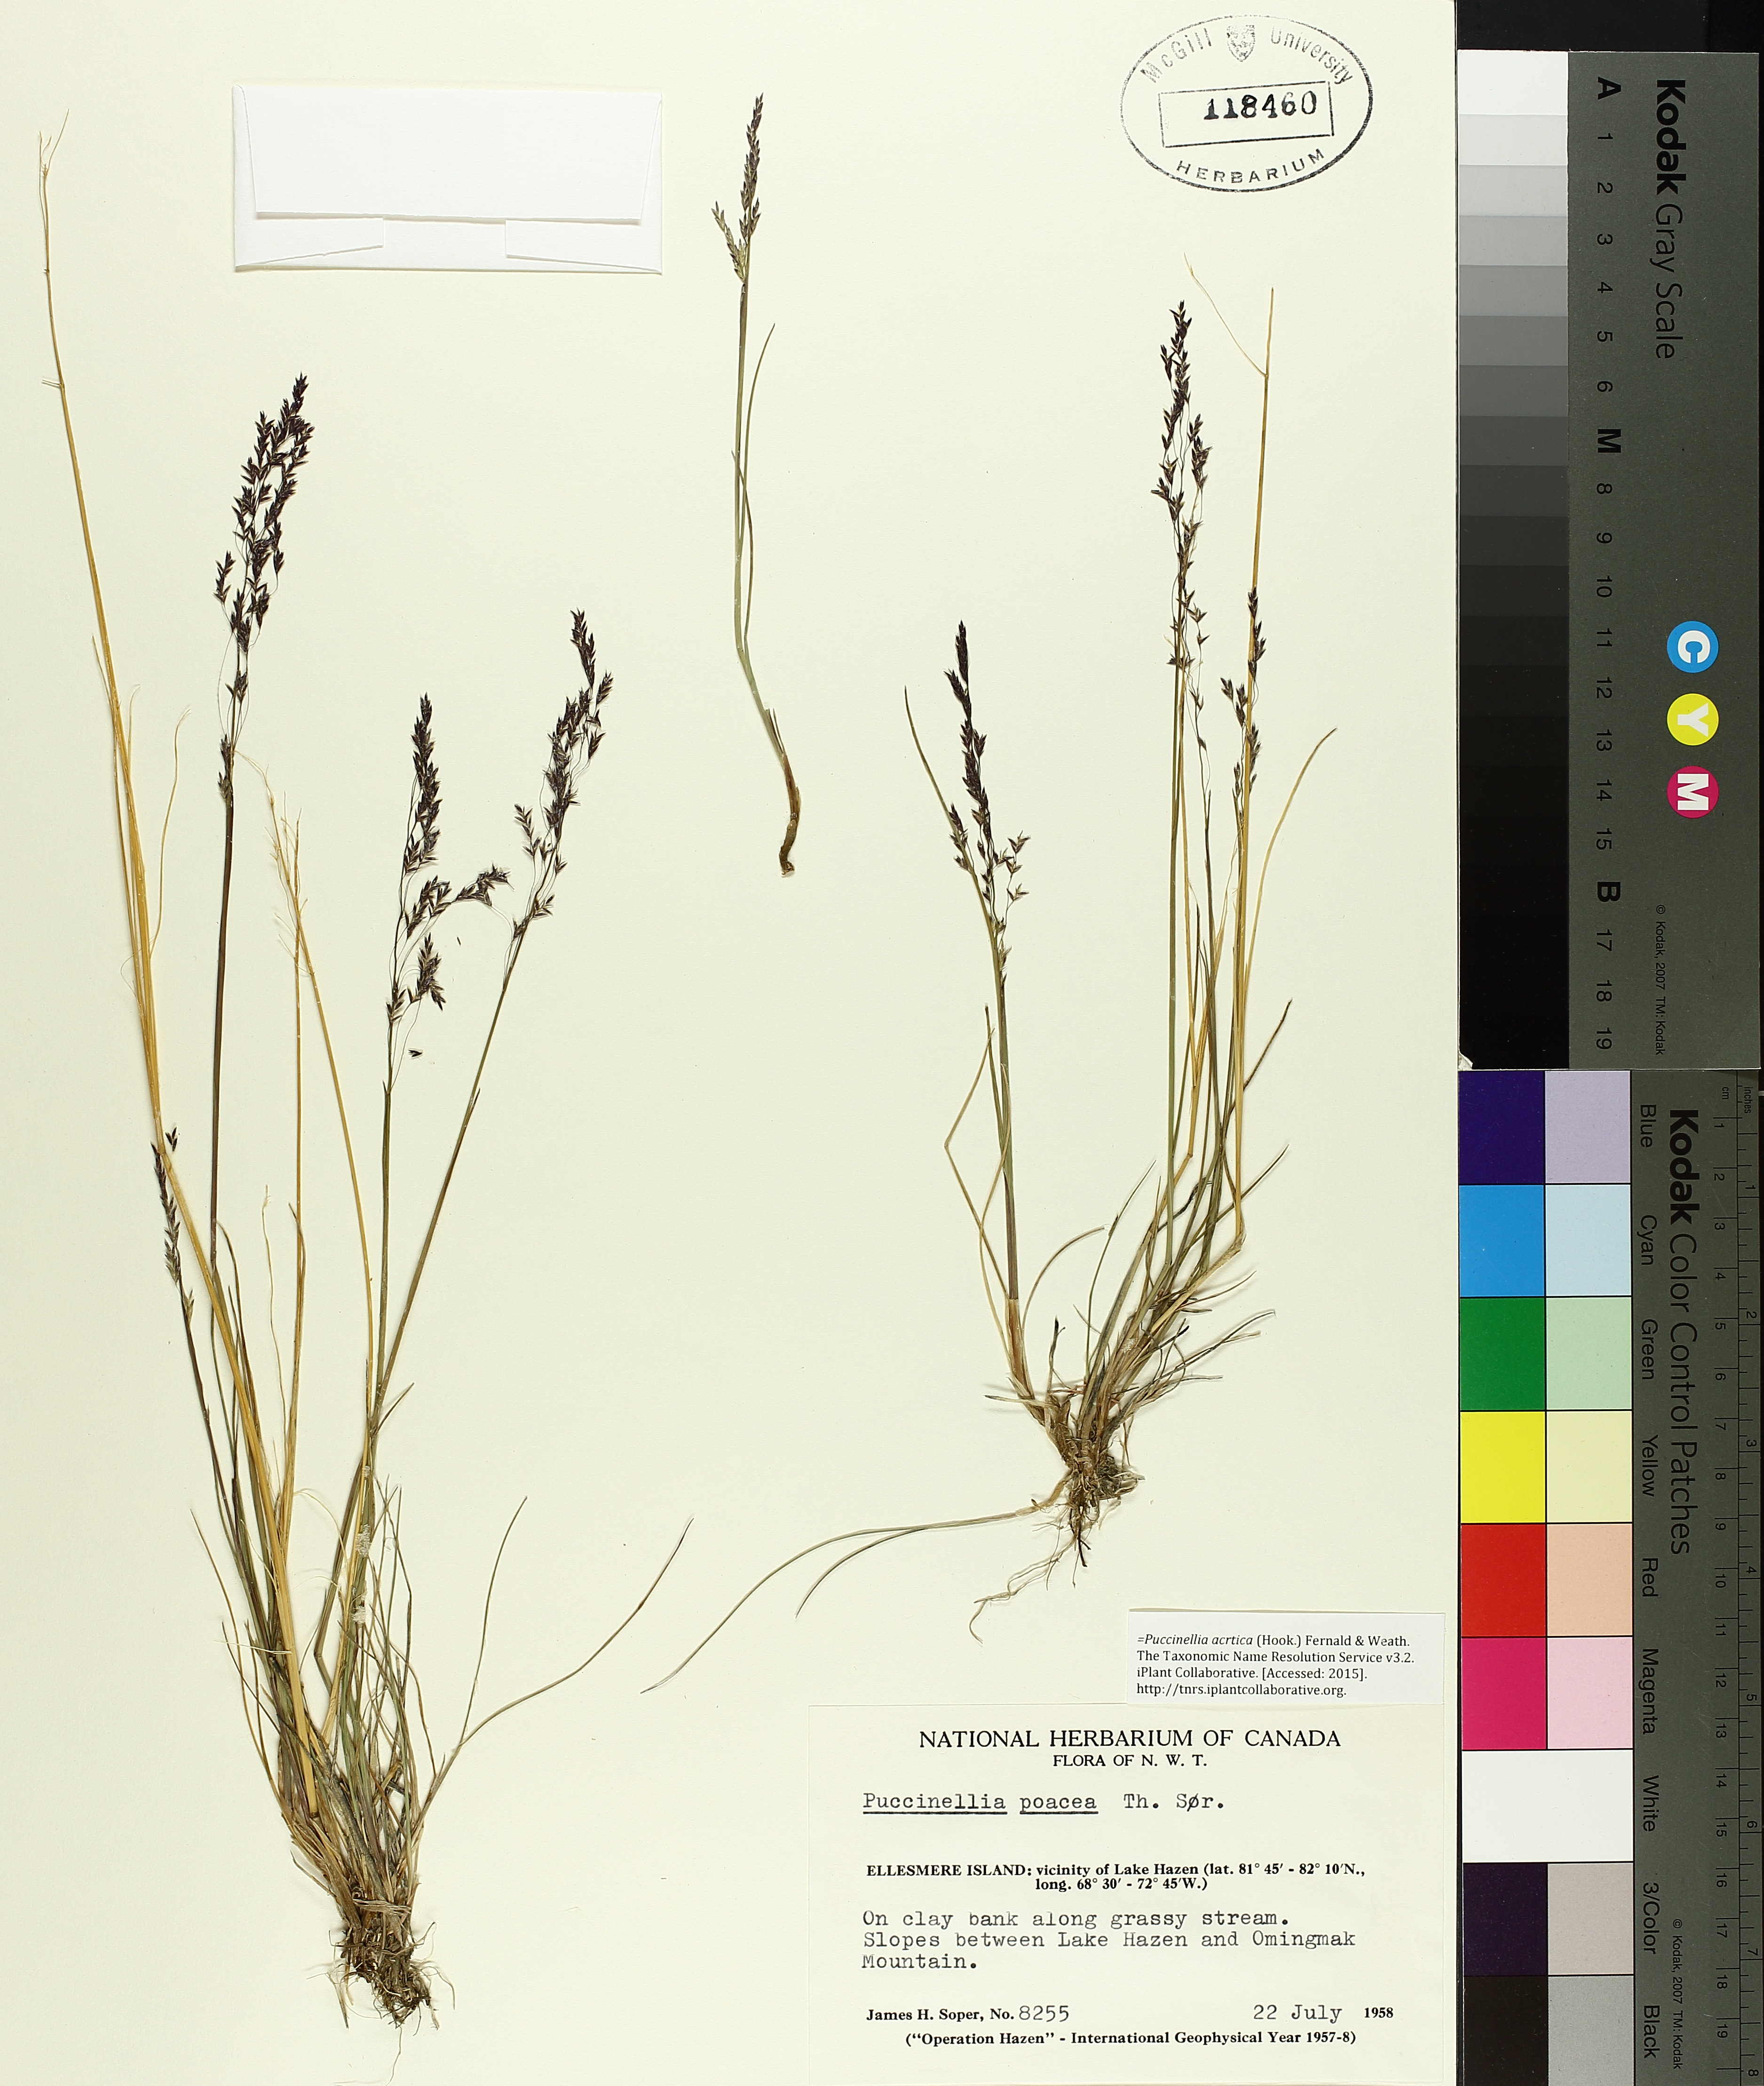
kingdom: Plantae
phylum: Tracheophyta
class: Liliopsida
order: Poales
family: Poaceae
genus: Puccinellia
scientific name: Puccinellia arctica
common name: Arctic alkali grass
